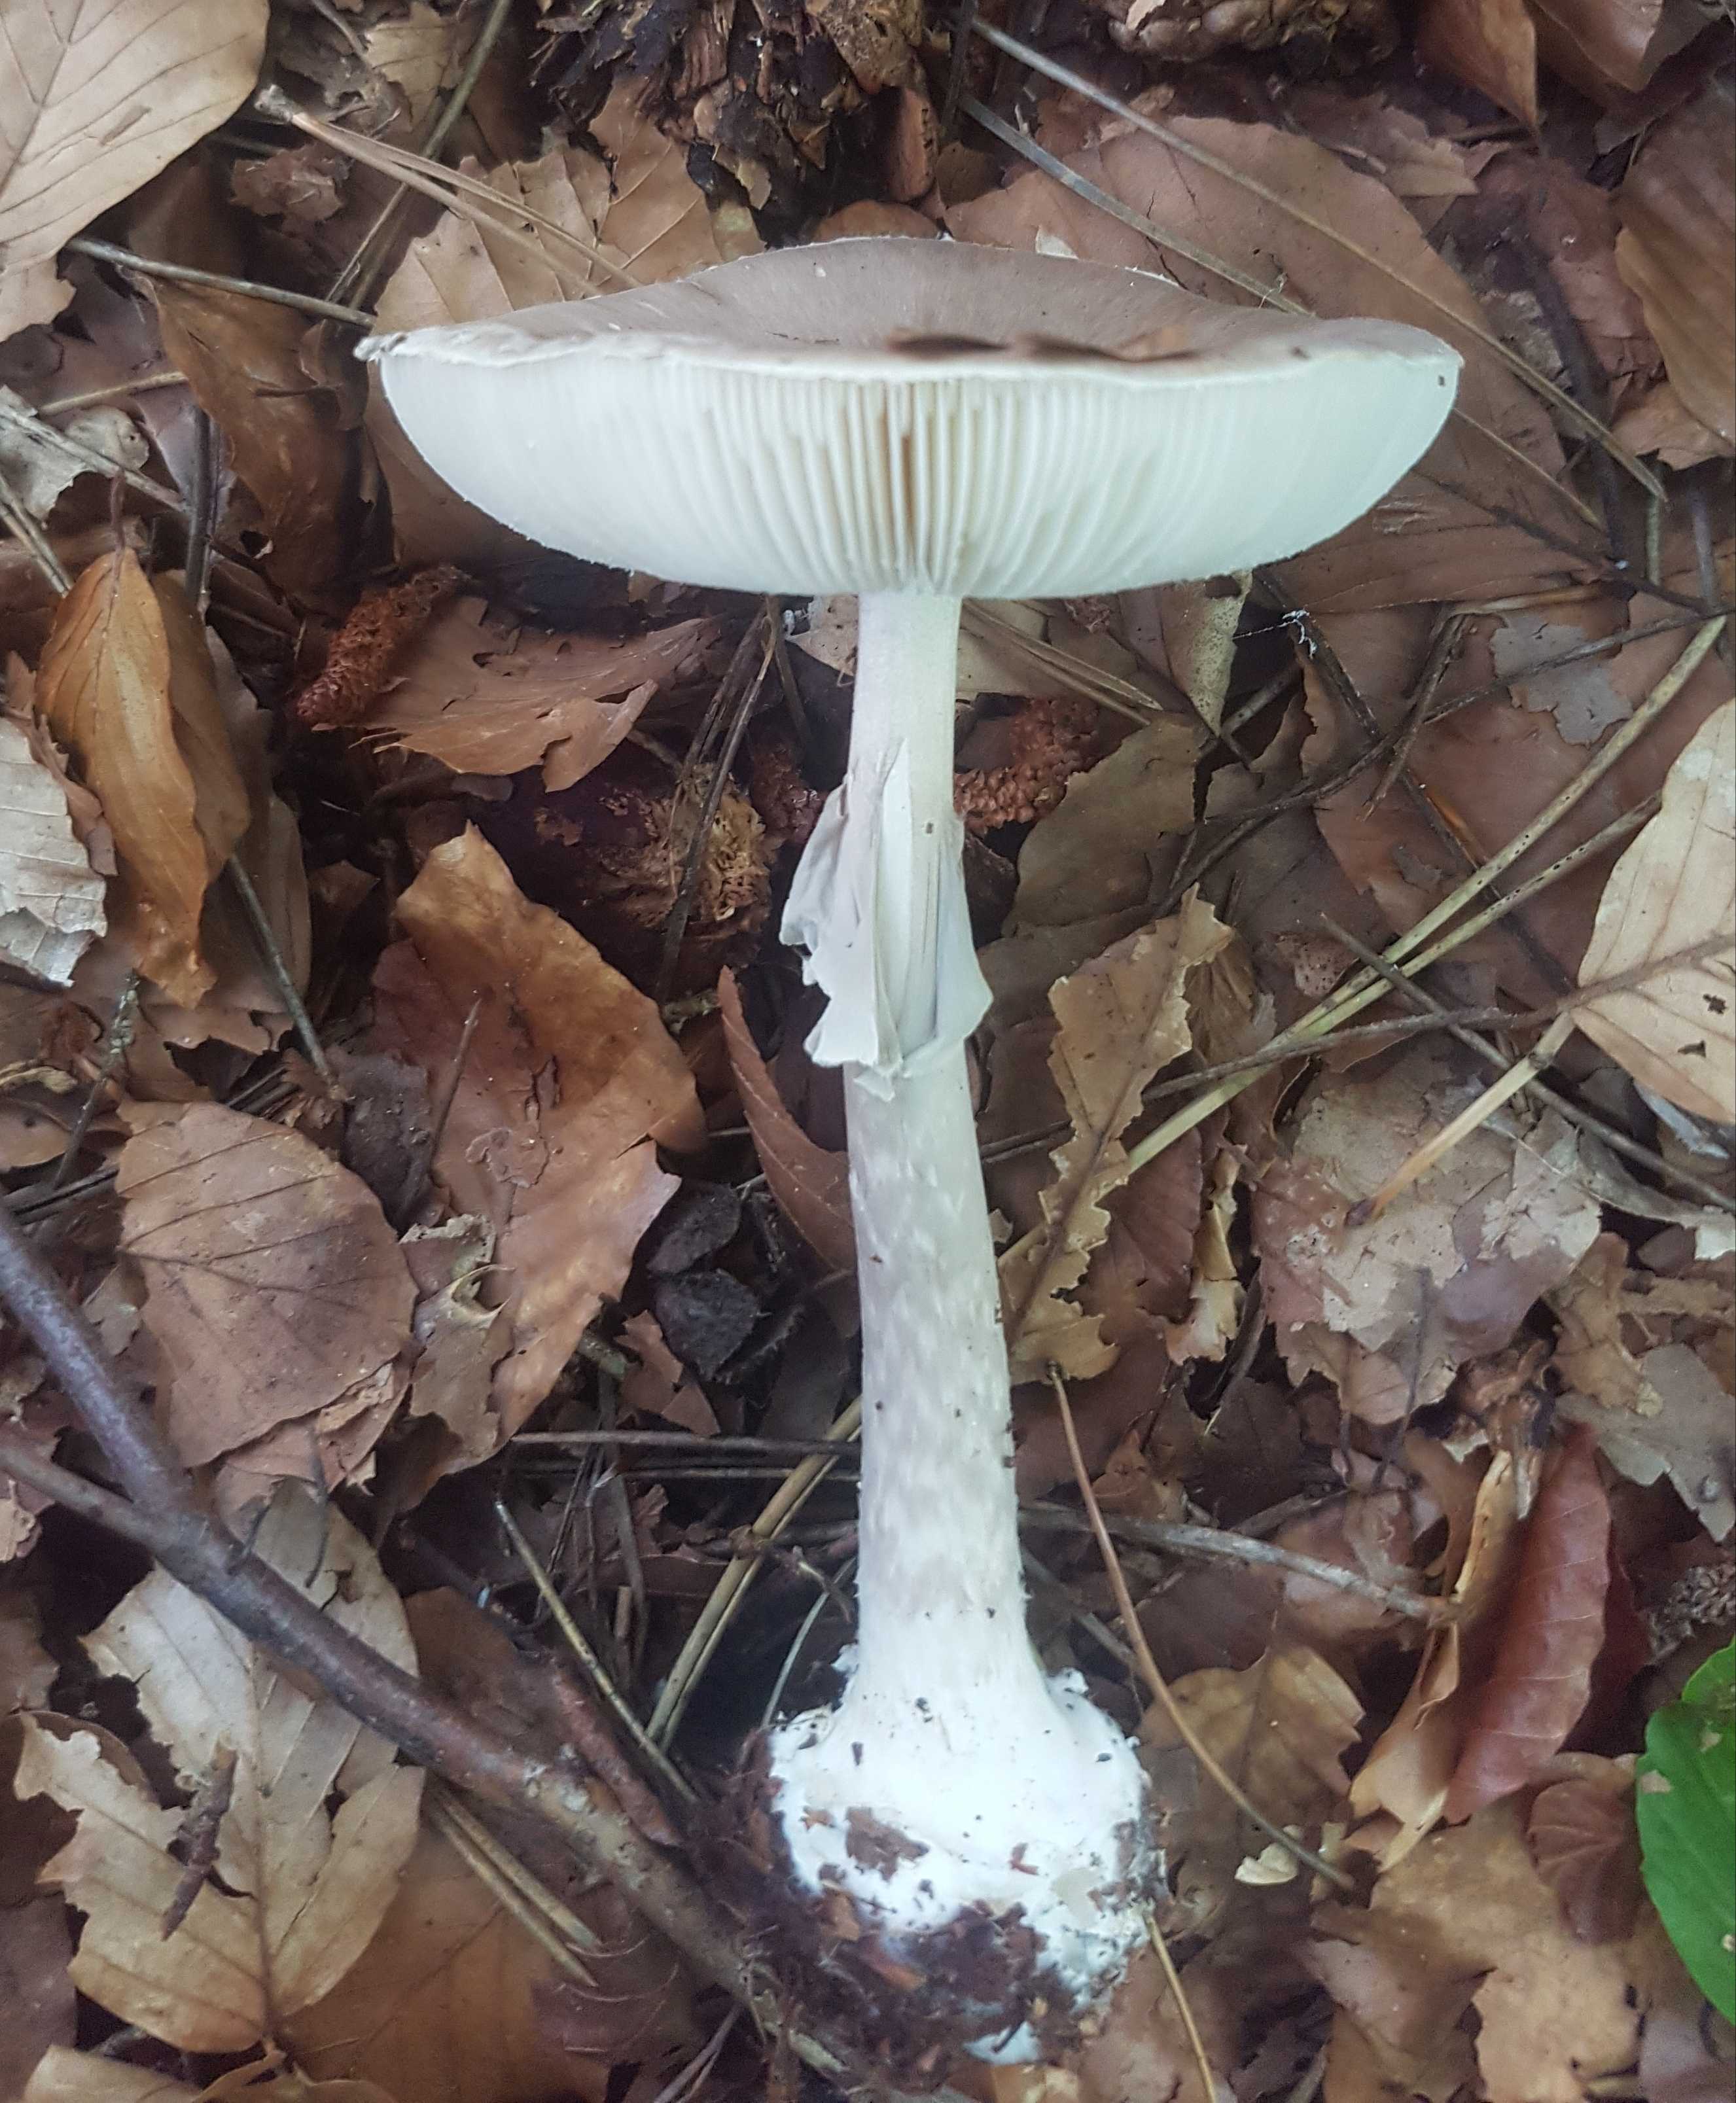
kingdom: Fungi
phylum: Basidiomycota
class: Agaricomycetes
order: Agaricales
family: Amanitaceae
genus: Amanita
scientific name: Amanita porphyria
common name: porfyr-fluesvamp
